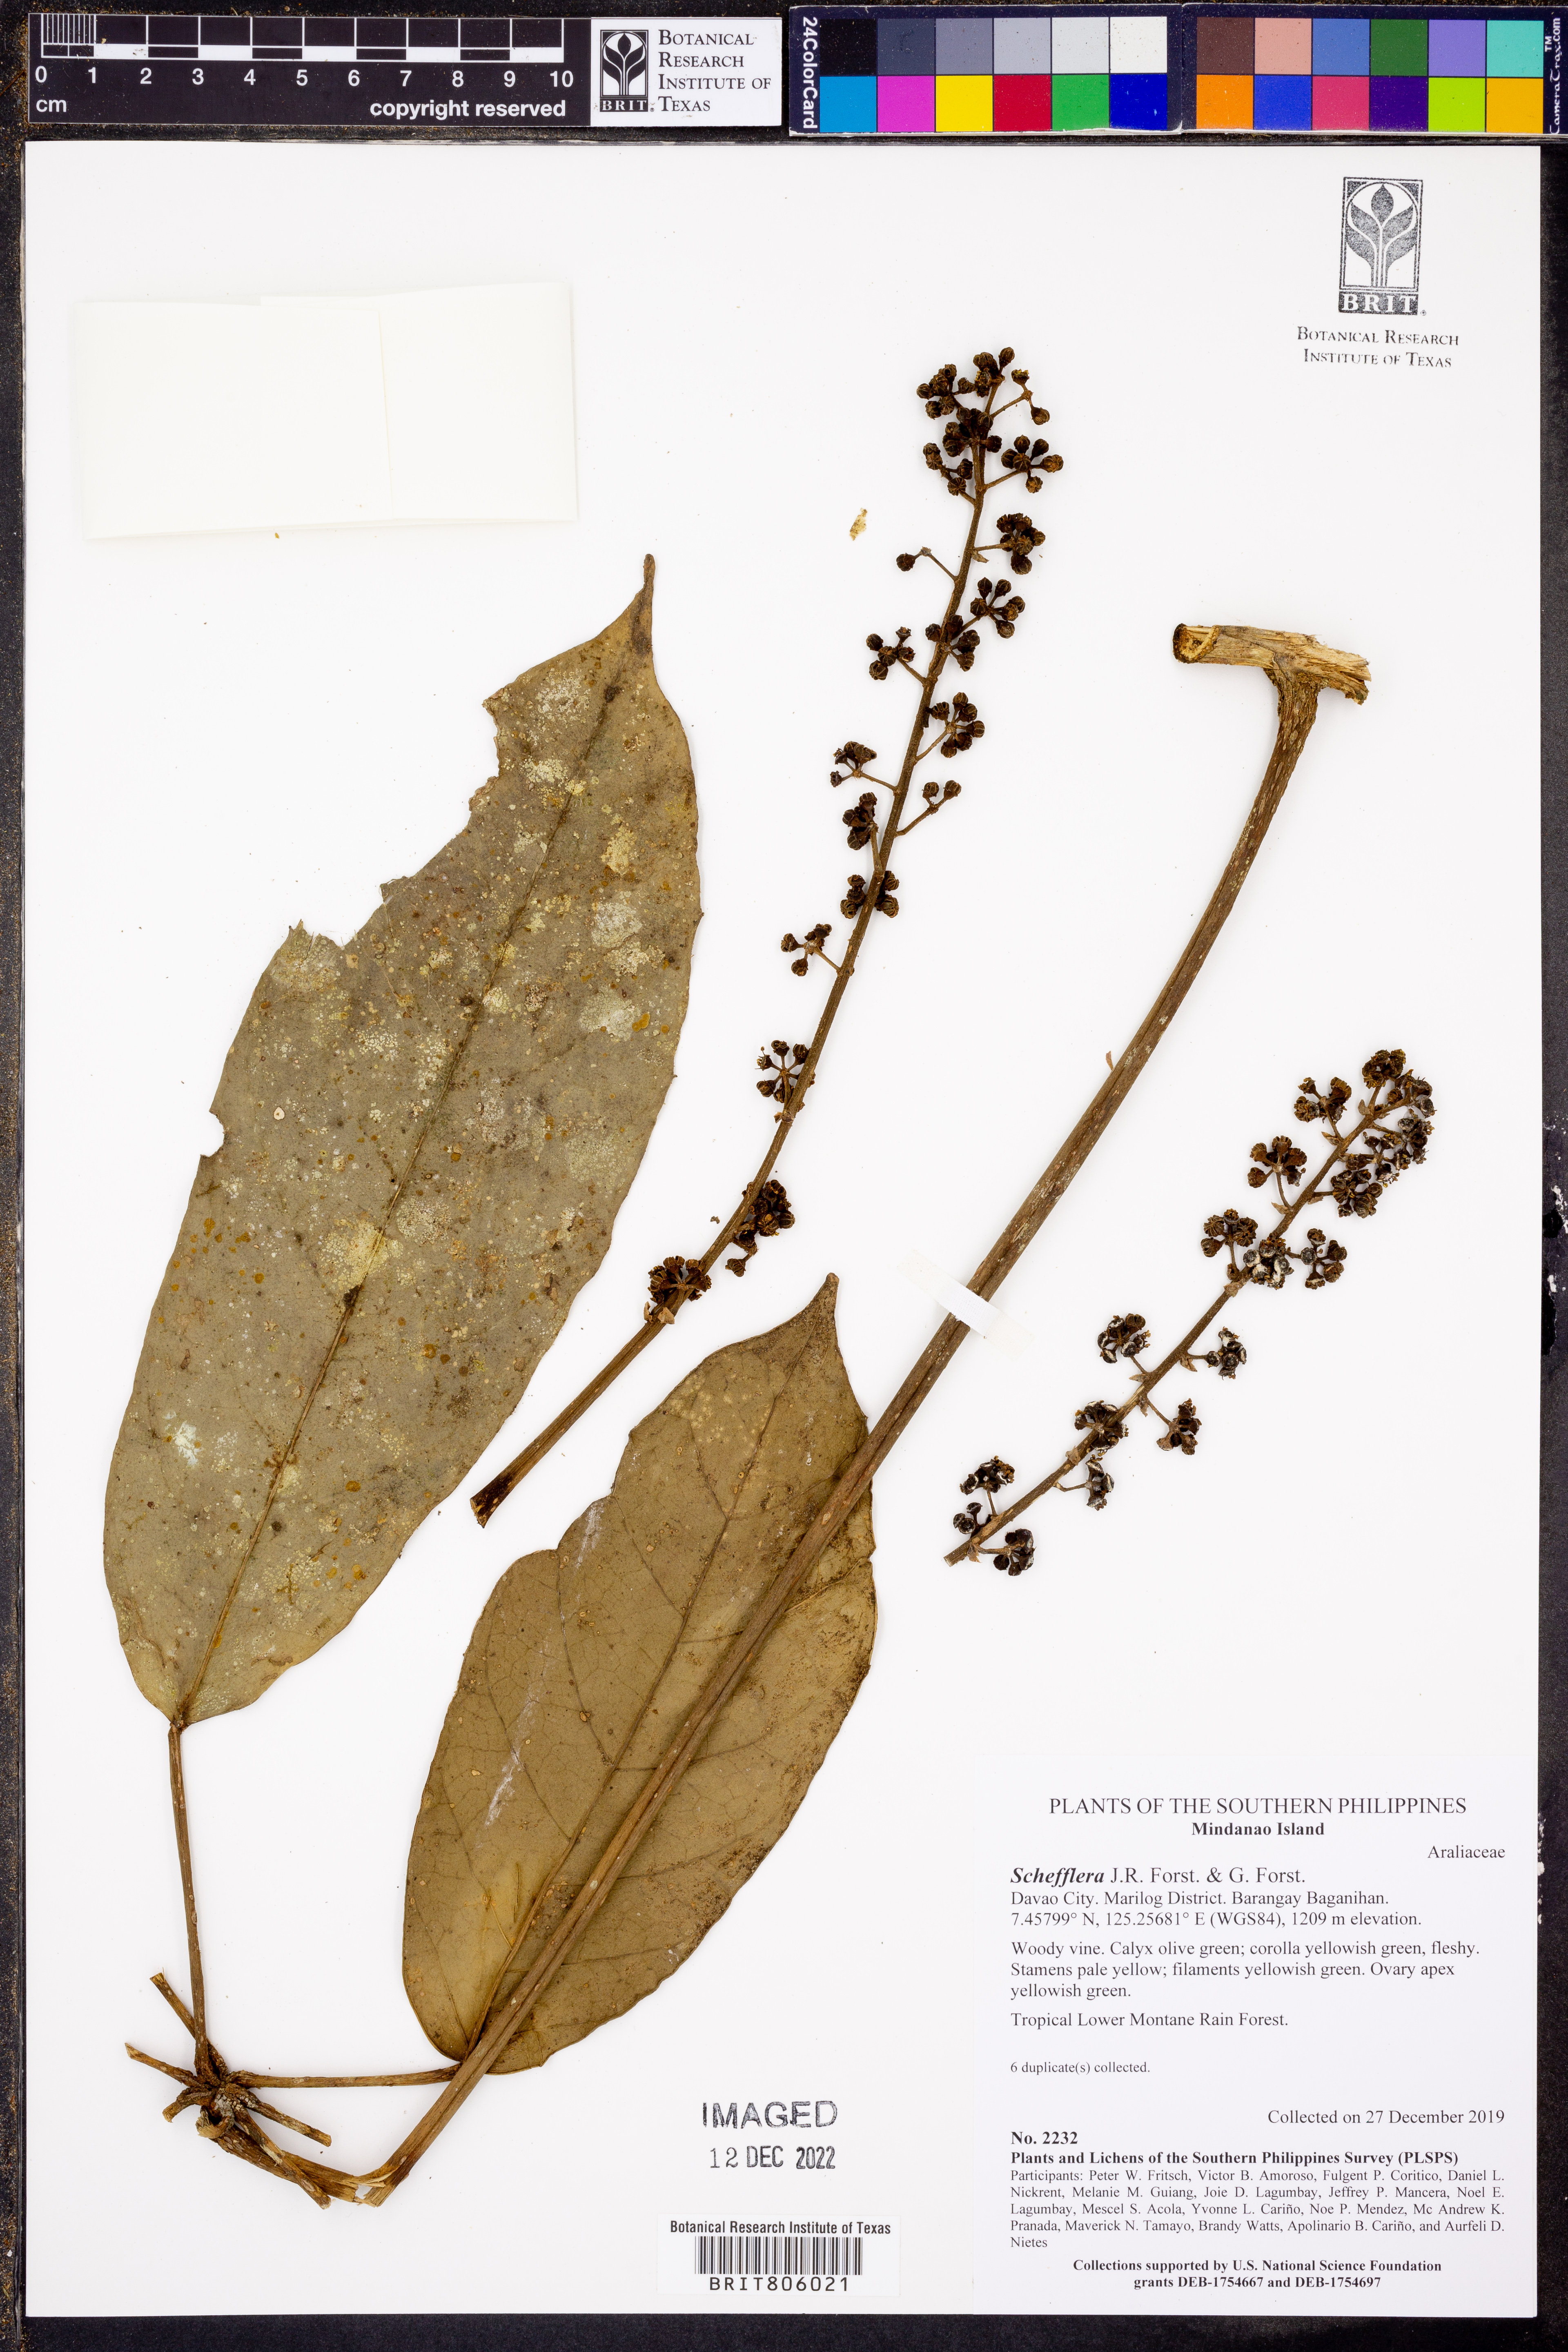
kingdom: Plantae
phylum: Tracheophyta
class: Magnoliopsida
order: Apiales
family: Araliaceae
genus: Schefflera
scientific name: Schefflera
